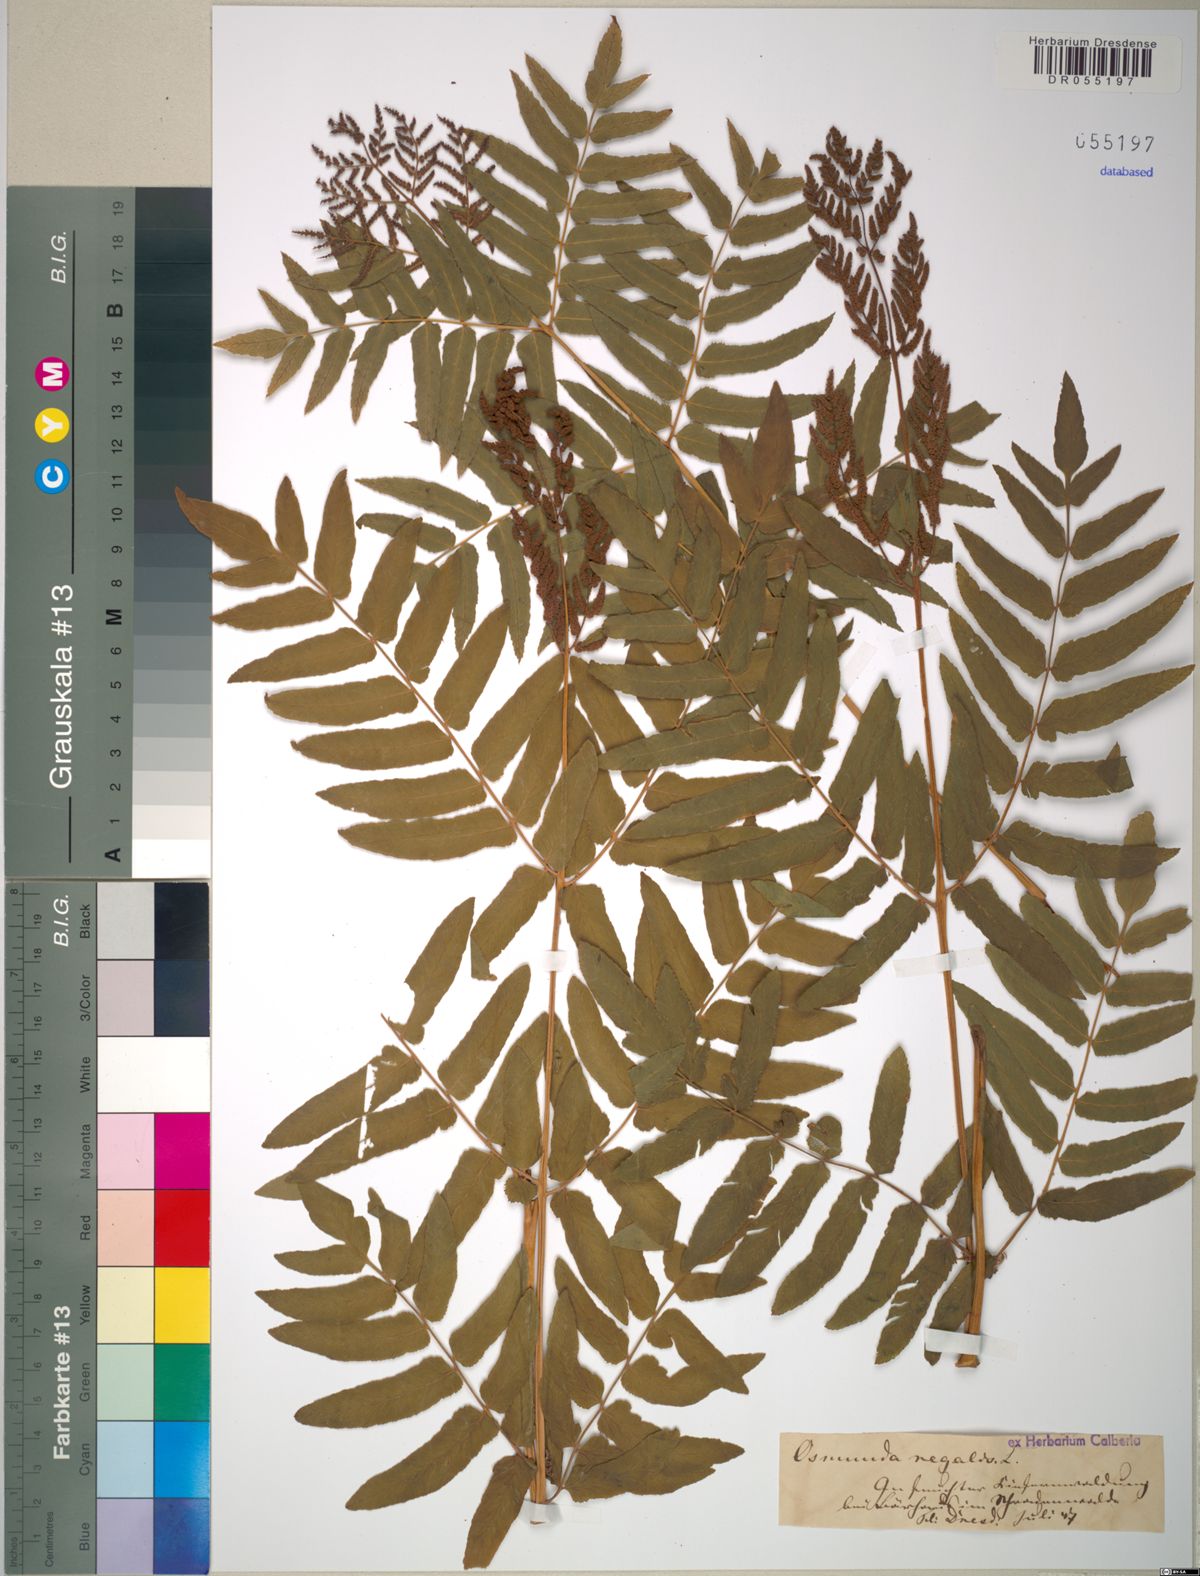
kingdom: Plantae
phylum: Tracheophyta
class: Polypodiopsida
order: Osmundales
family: Osmundaceae
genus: Osmunda
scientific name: Osmunda regalis
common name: Royal fern
